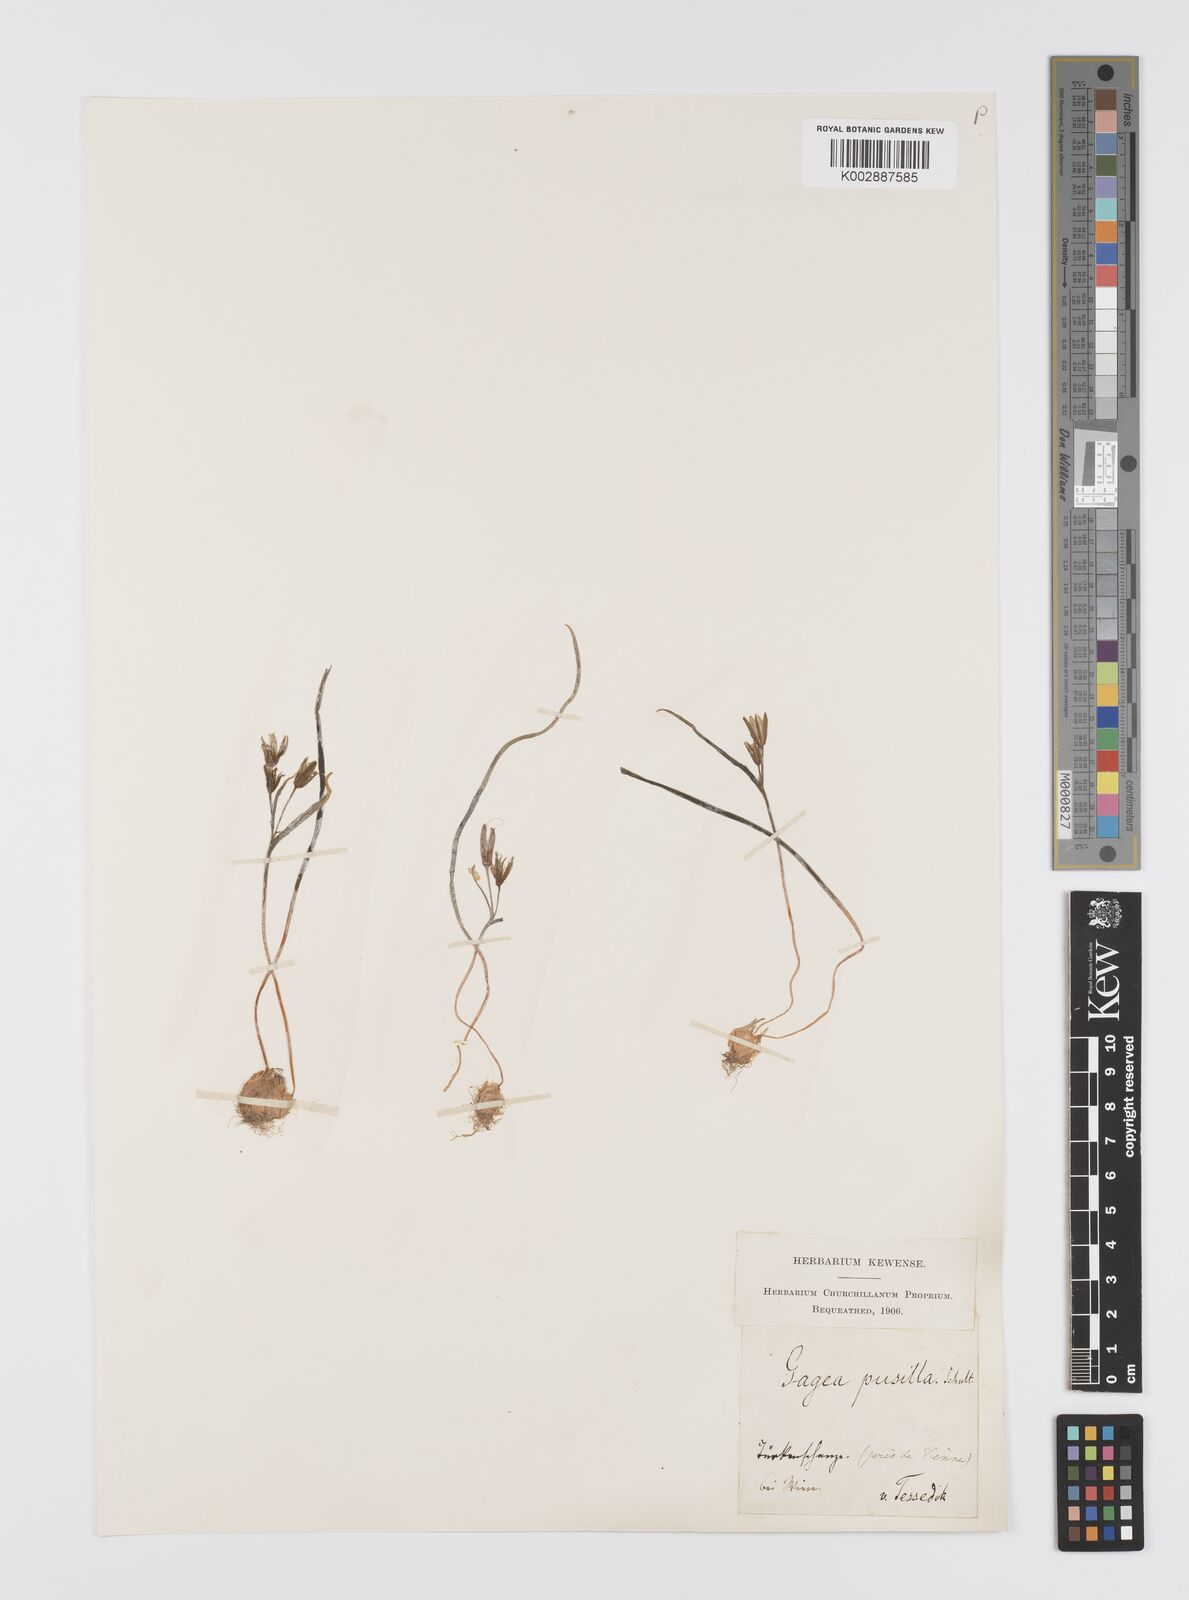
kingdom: Plantae
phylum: Tracheophyta
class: Liliopsida
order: Liliales
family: Liliaceae
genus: Gagea
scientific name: Gagea pusilla
